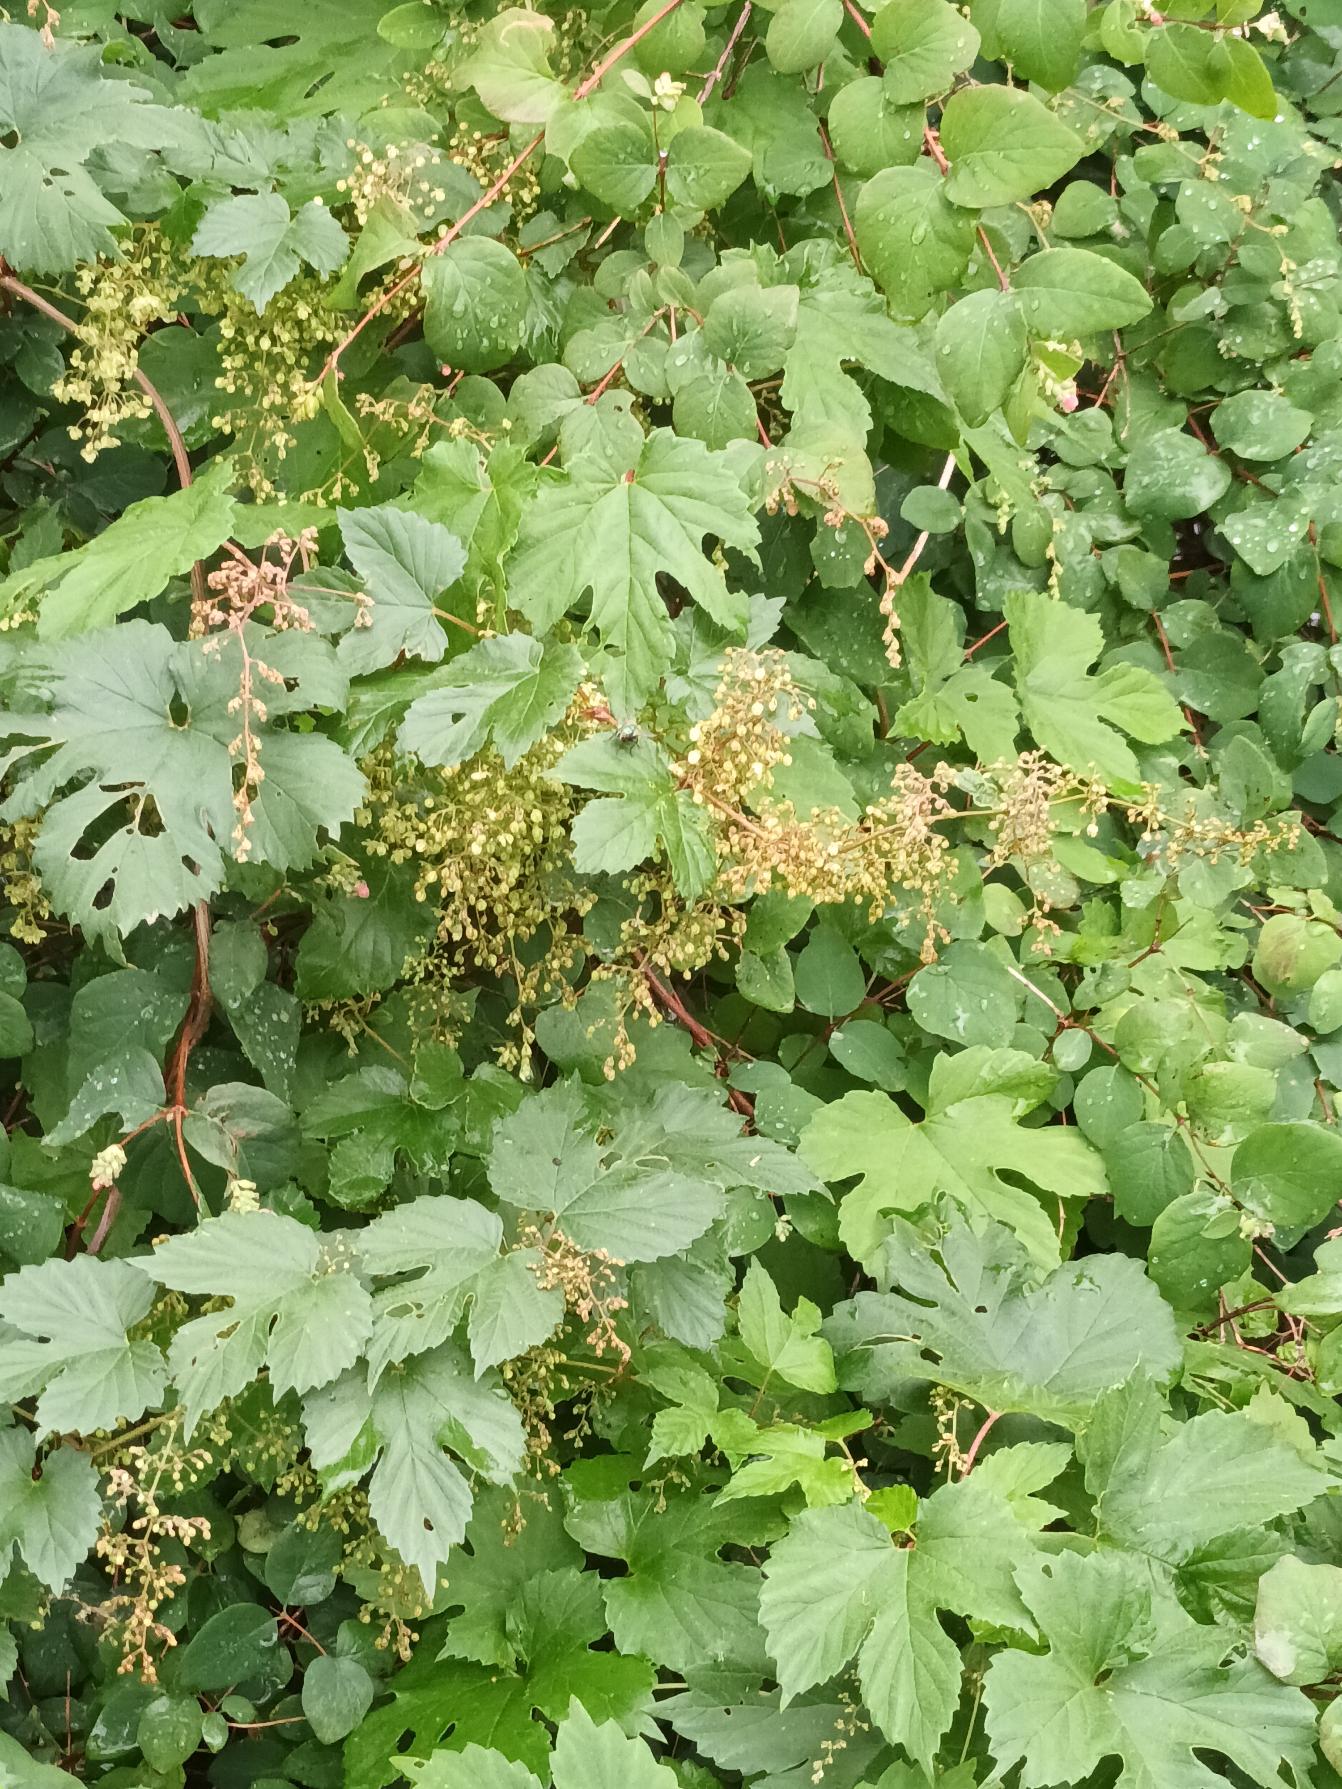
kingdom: Plantae
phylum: Tracheophyta
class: Magnoliopsida
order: Rosales
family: Cannabaceae
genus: Humulus
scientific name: Humulus lupulus
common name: Humle
